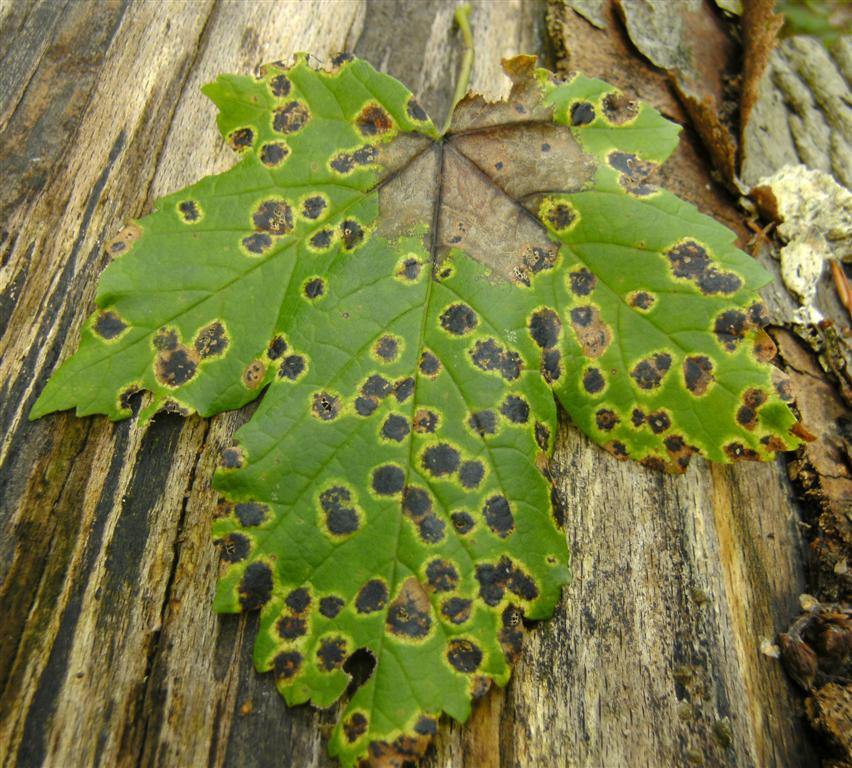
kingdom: Fungi
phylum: Ascomycota
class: Leotiomycetes
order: Rhytismatales
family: Rhytismataceae
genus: Rhytisma
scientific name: Rhytisma acerinum
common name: ahorn-rynkeplet
